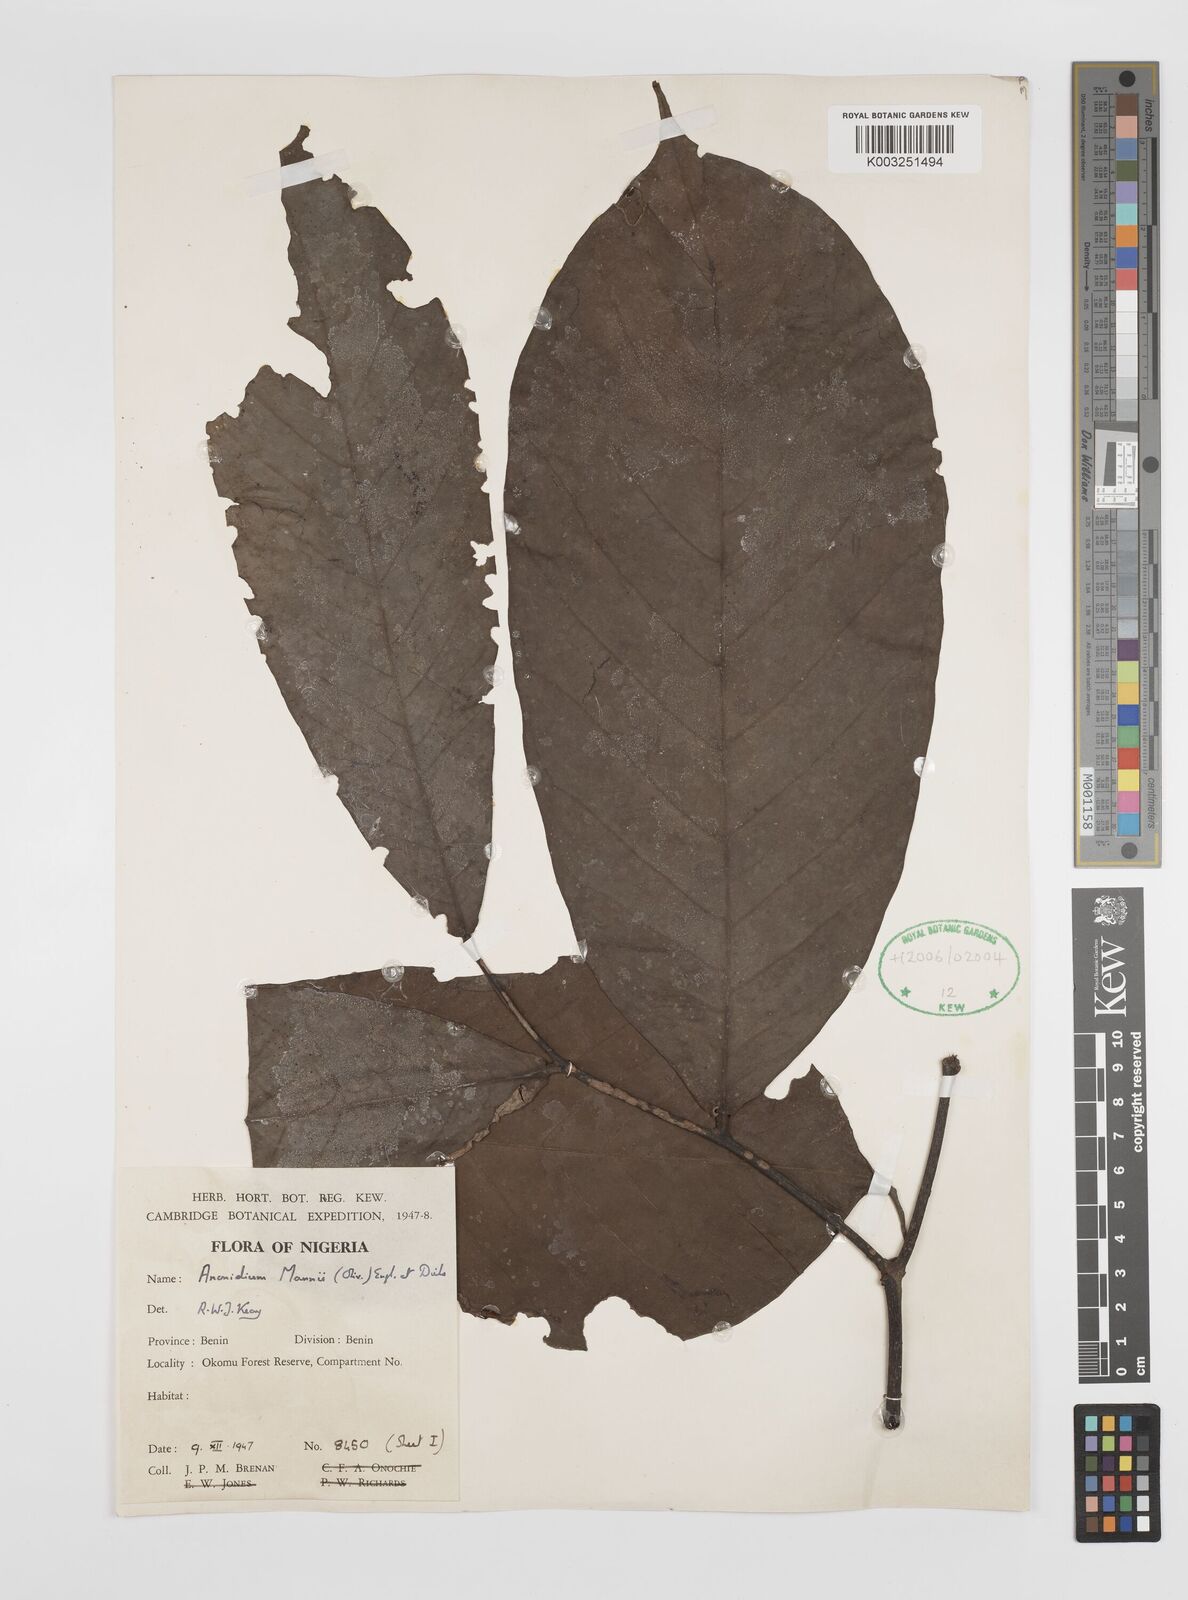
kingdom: Plantae
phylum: Tracheophyta
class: Magnoliopsida
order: Magnoliales
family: Annonaceae
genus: Anonidium
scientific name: Anonidium mannii
